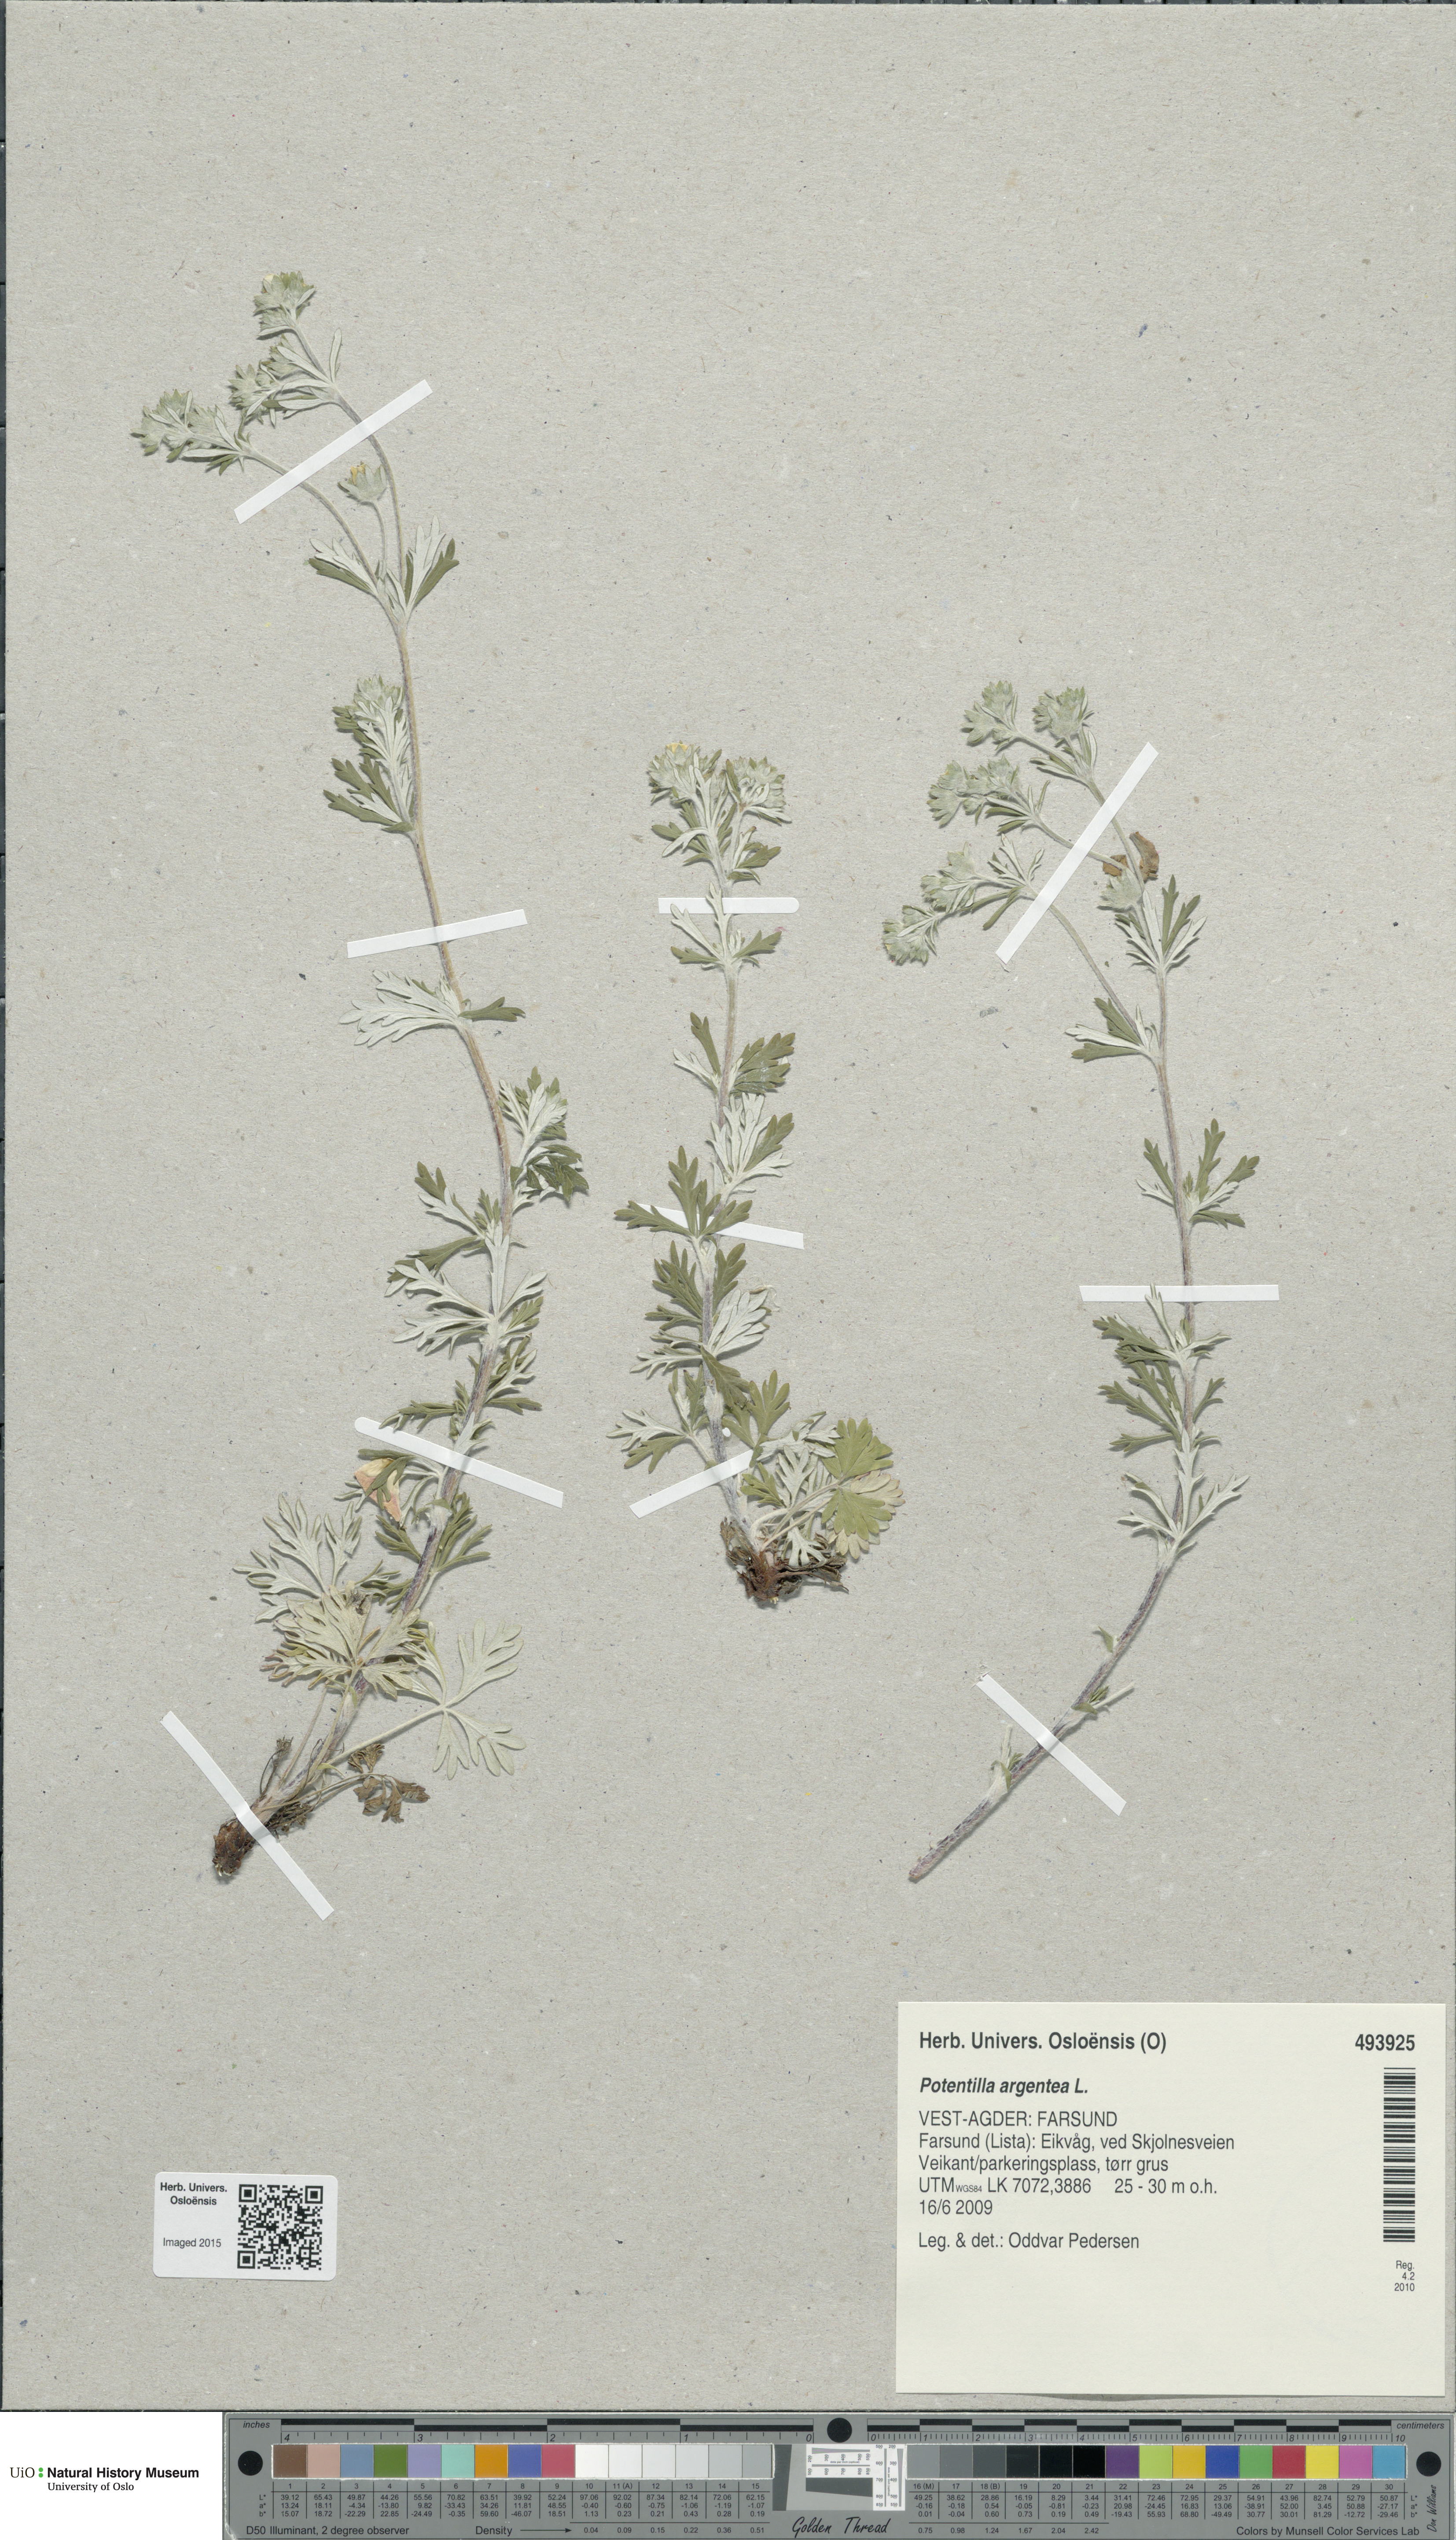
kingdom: Plantae
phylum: Tracheophyta
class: Magnoliopsida
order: Rosales
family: Rosaceae
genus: Potentilla
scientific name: Potentilla argentea
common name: Hoary cinquefoil
